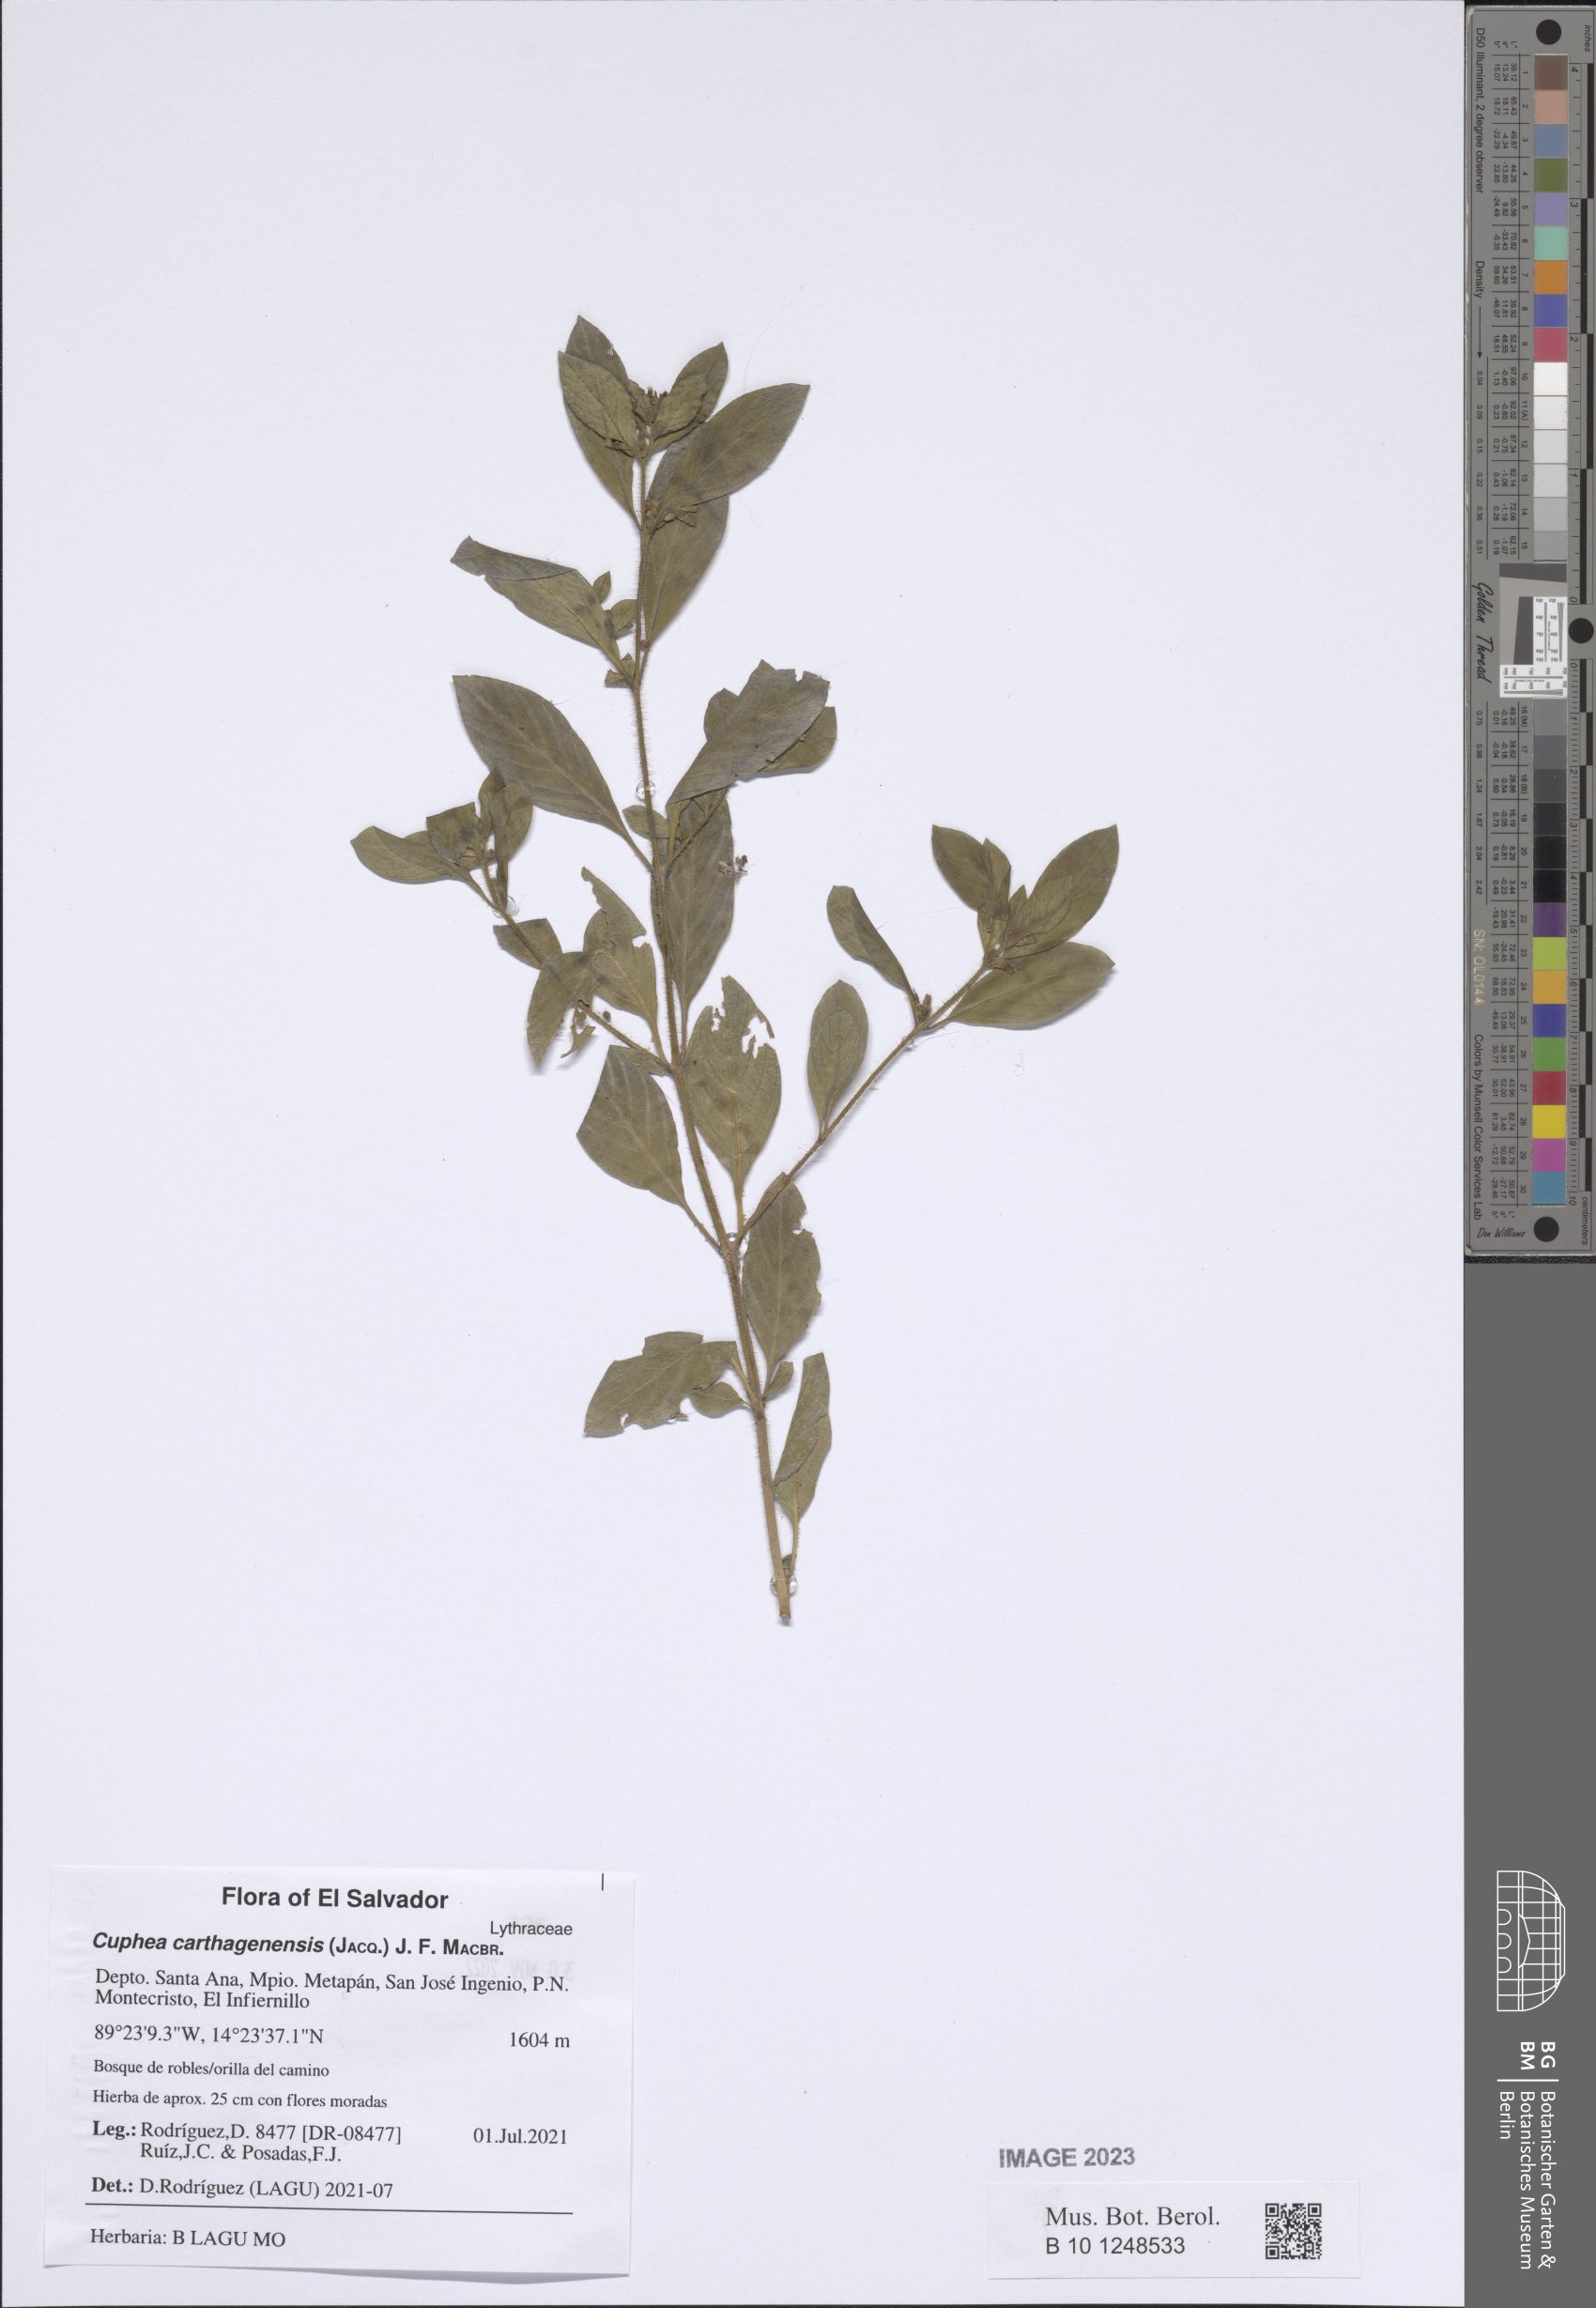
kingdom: Plantae
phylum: Tracheophyta
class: Magnoliopsida
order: Myrtales
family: Lythraceae
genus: Cuphea
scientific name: Cuphea carthagenensis
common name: Colombian waxweed
